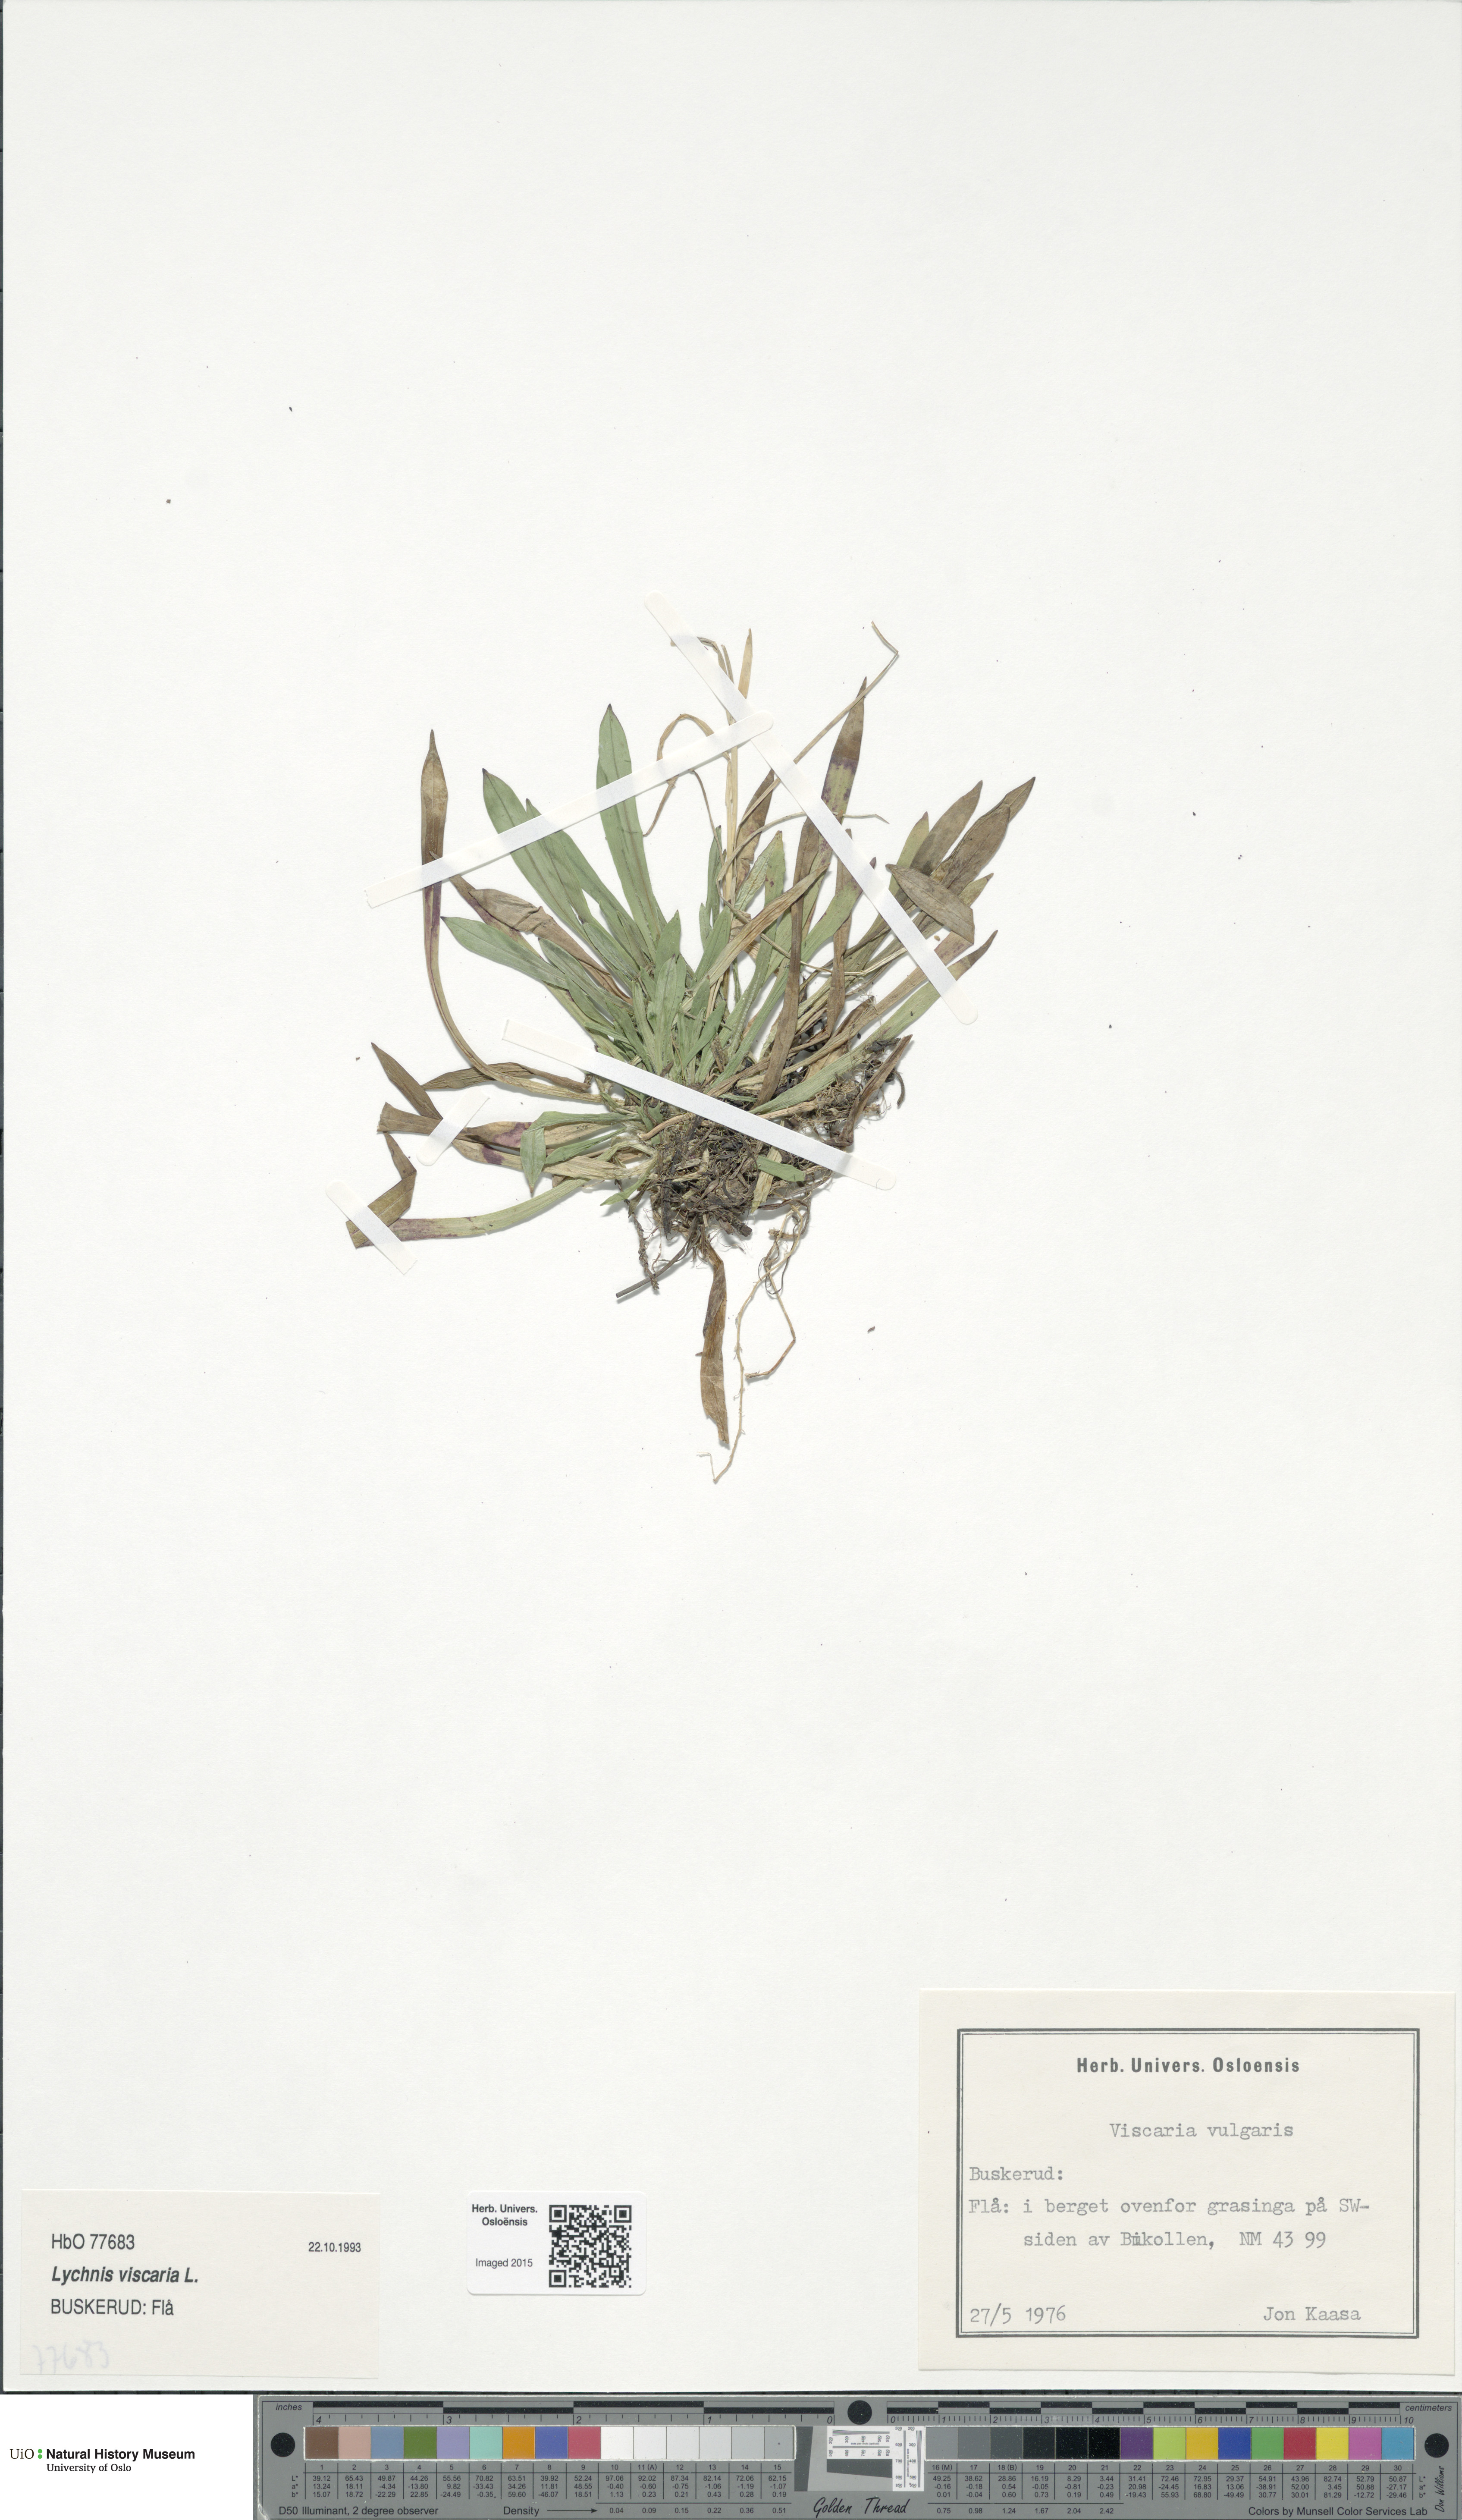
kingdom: Plantae
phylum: Tracheophyta
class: Magnoliopsida
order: Caryophyllales
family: Caryophyllaceae
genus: Viscaria
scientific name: Viscaria vulgaris
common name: Clammy campion
